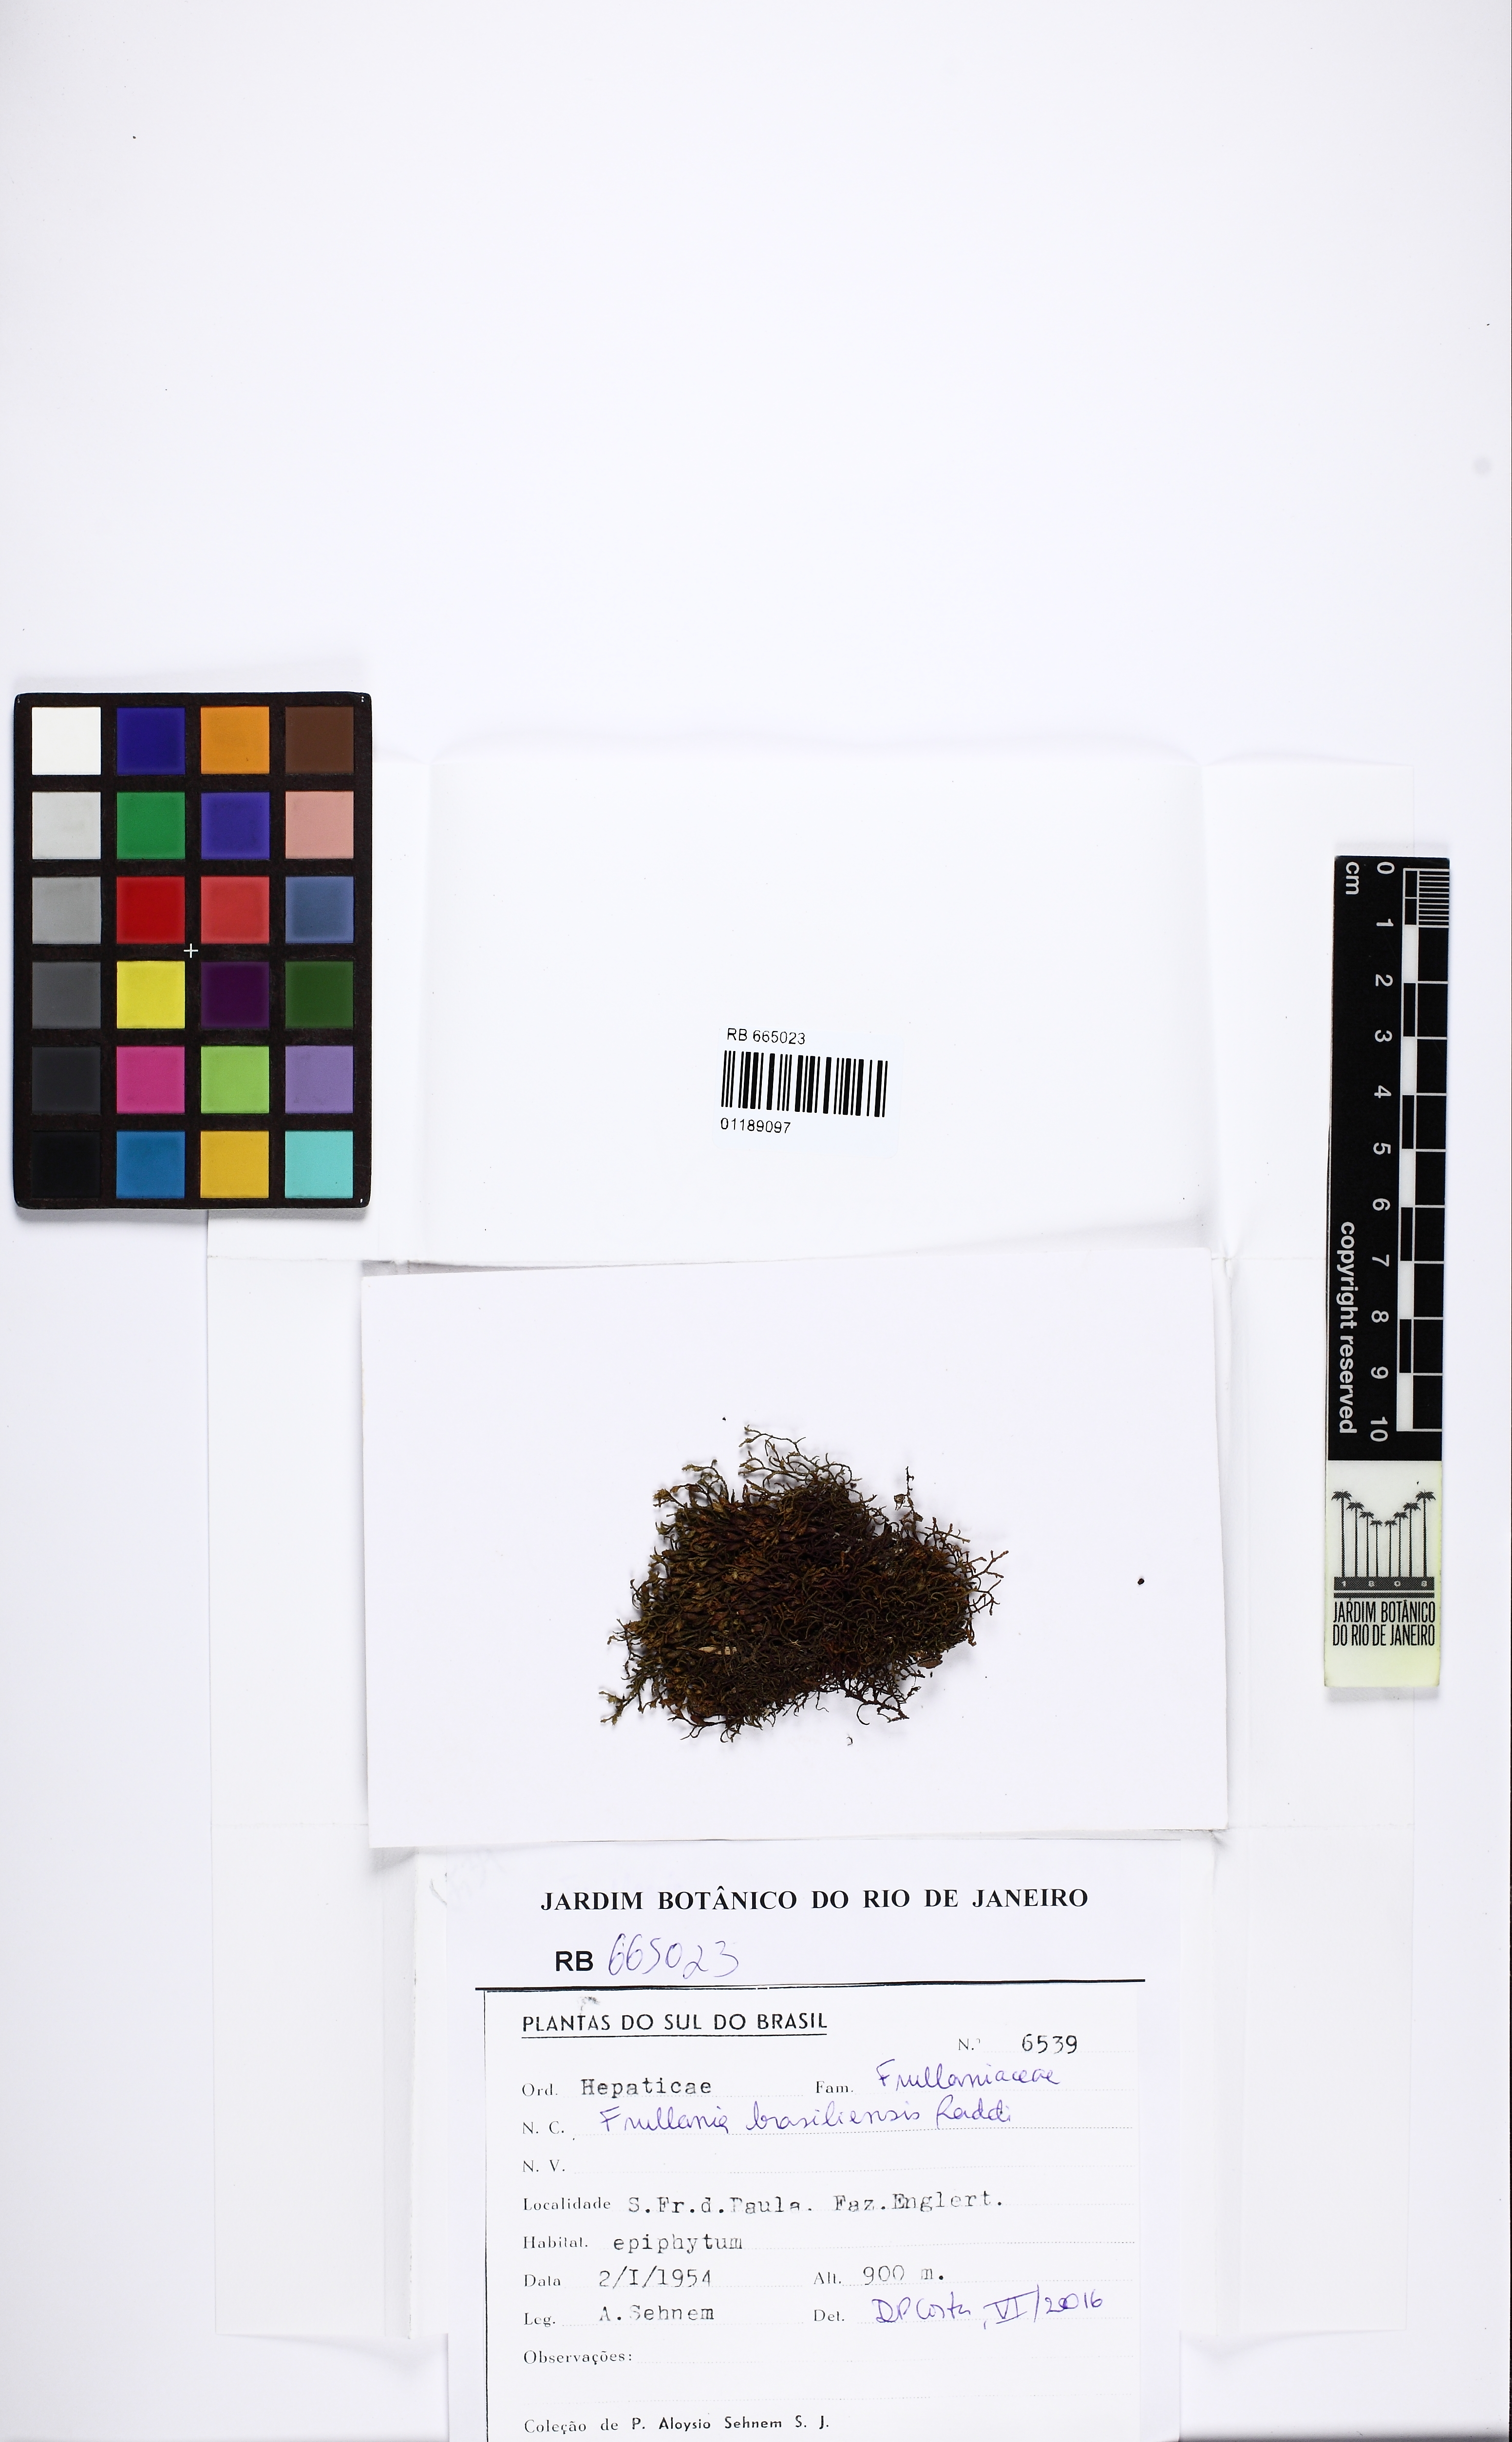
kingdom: Plantae
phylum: Marchantiophyta
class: Jungermanniopsida
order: Porellales
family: Frullaniaceae
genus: Frullania
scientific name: Frullania brasiliensis
